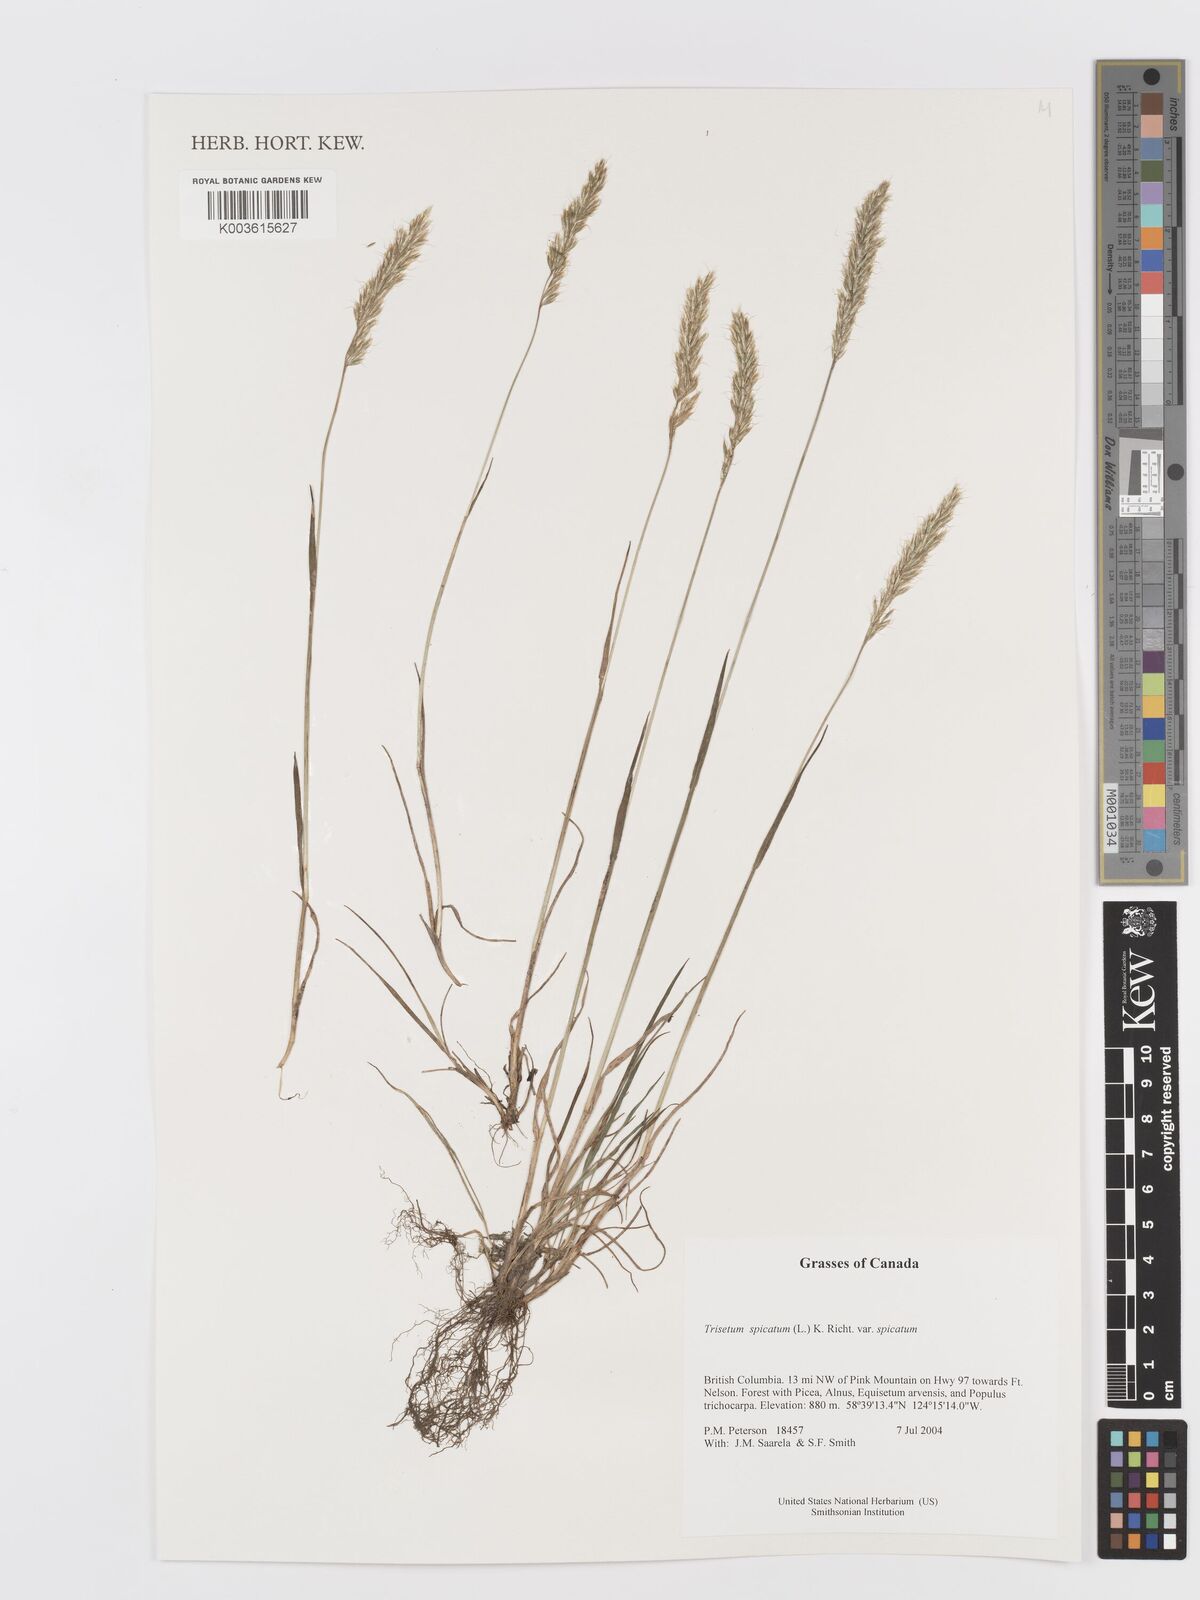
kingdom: Plantae
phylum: Tracheophyta
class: Liliopsida
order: Poales
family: Poaceae
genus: Koeleria
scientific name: Koeleria spicata
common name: Mountain trisetum
